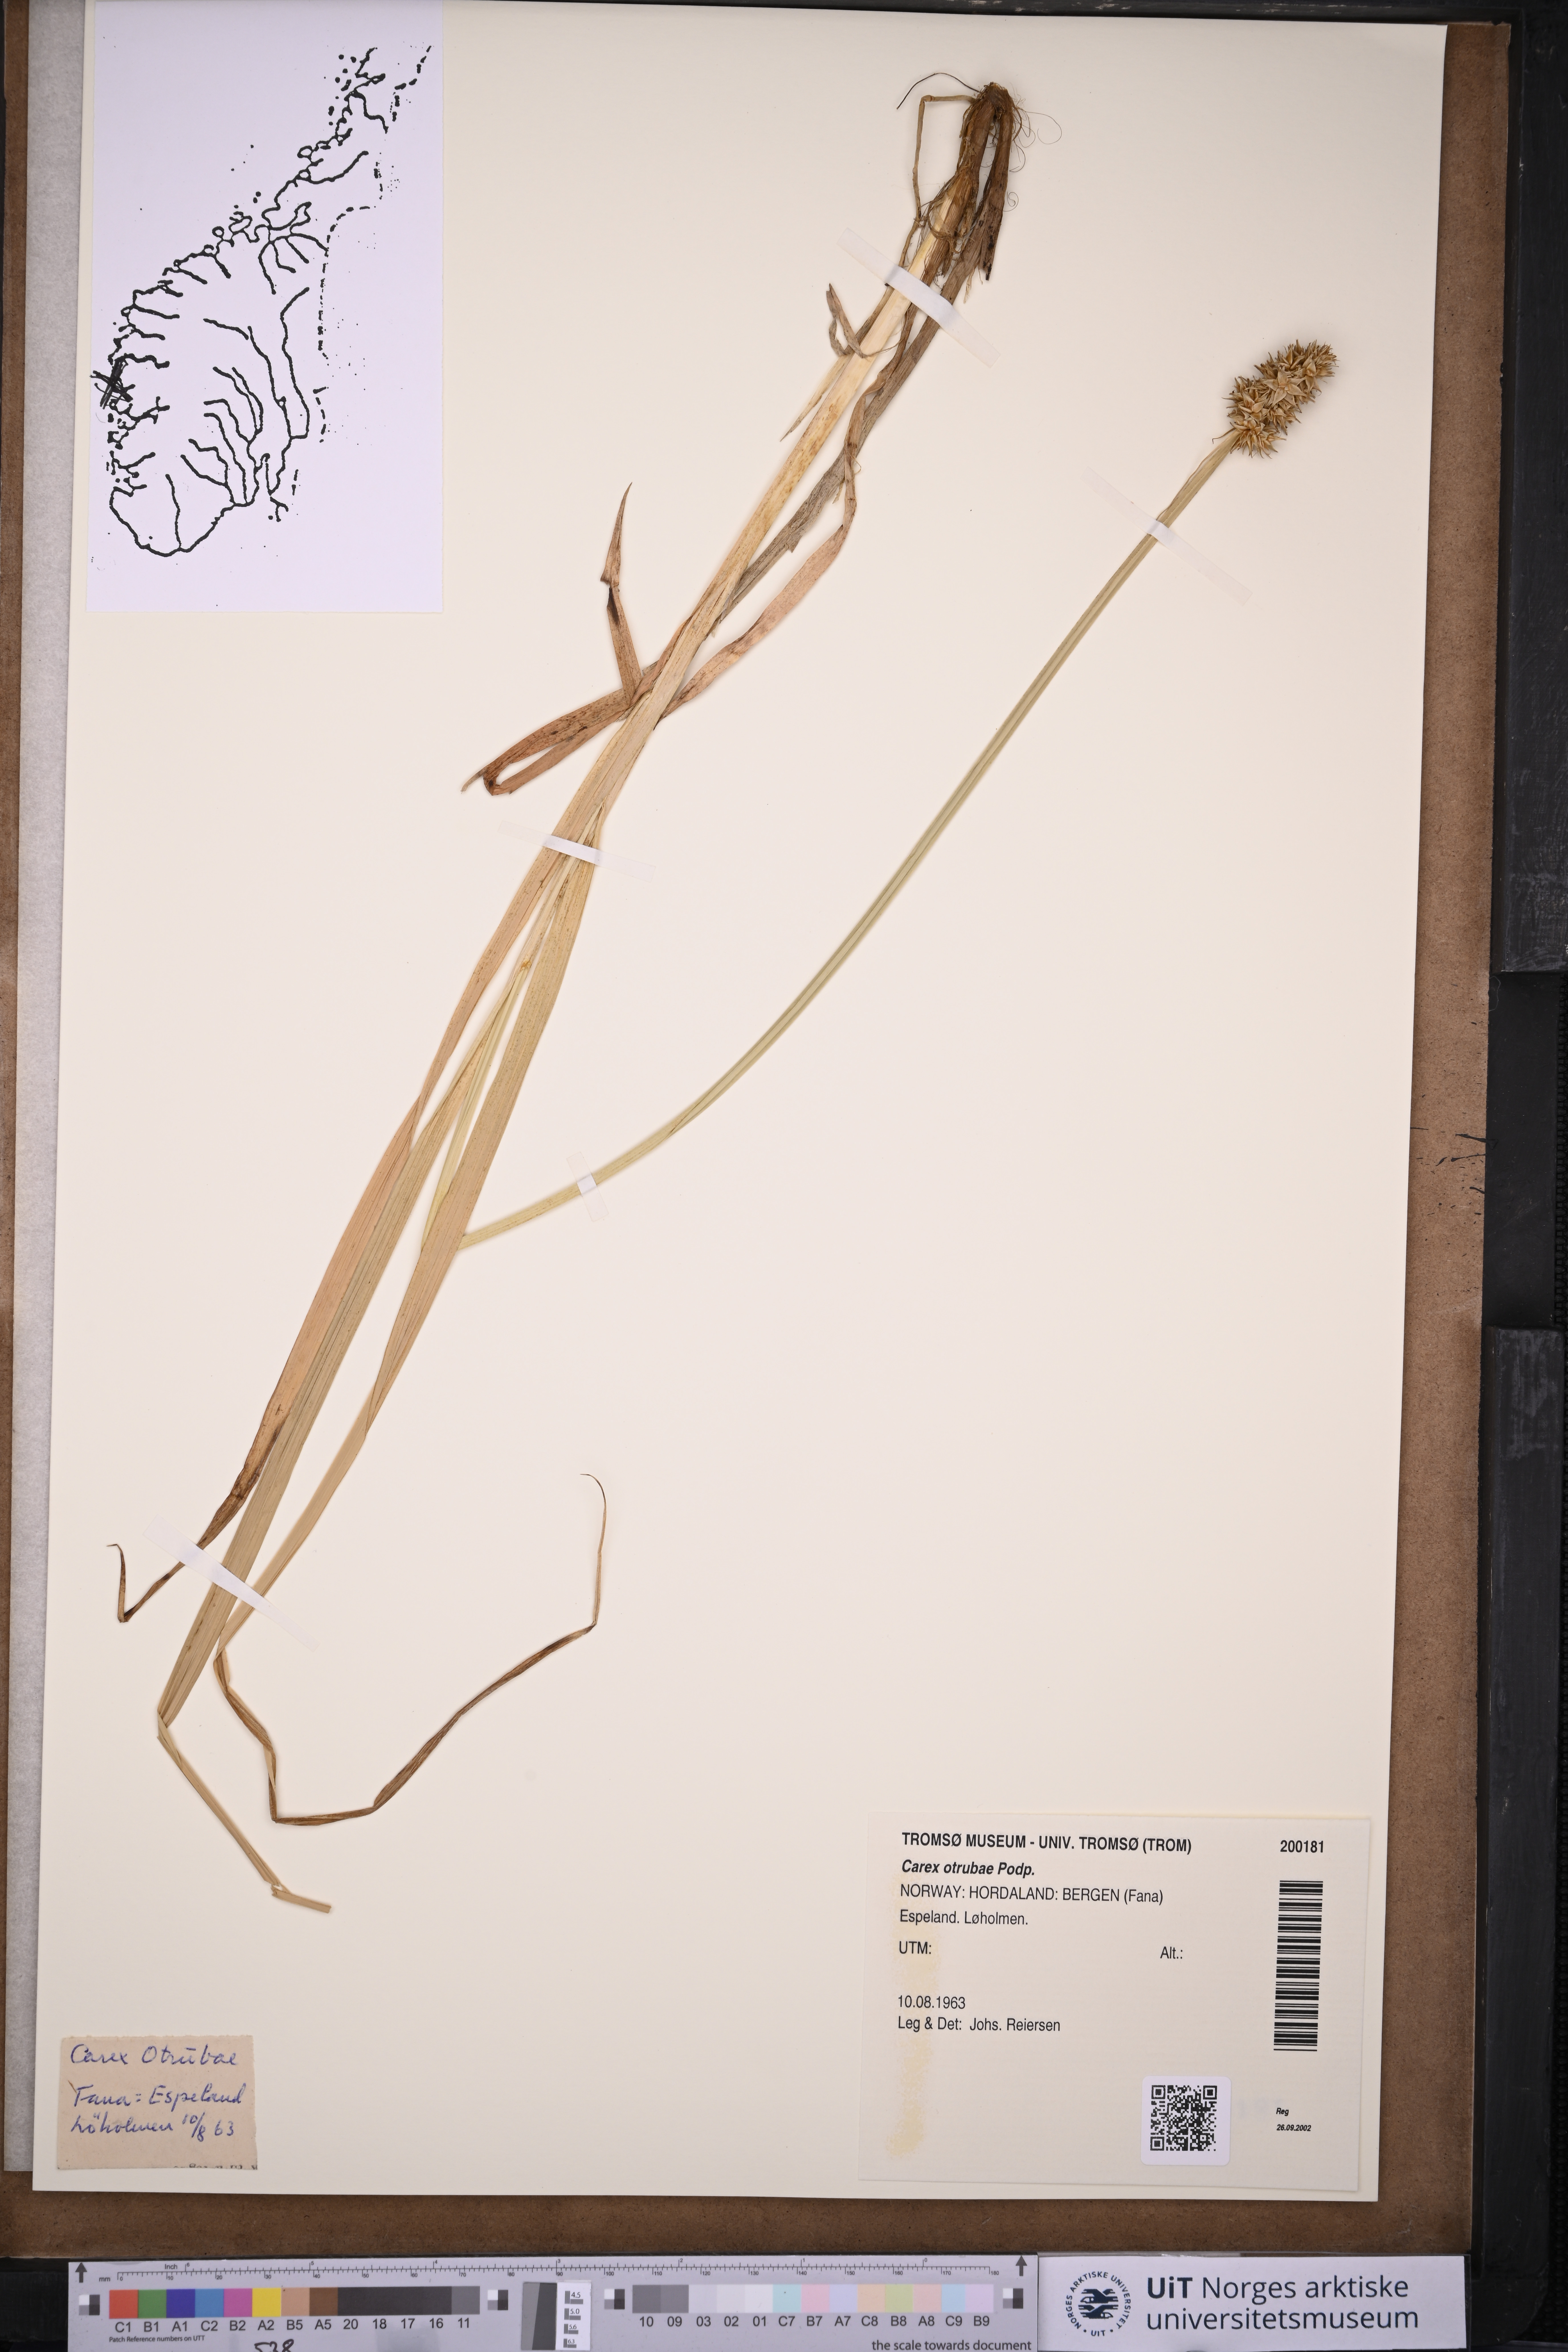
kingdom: Plantae
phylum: Tracheophyta
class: Liliopsida
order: Poales
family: Cyperaceae
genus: Carex
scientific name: Carex otrubae
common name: False fox-sedge
